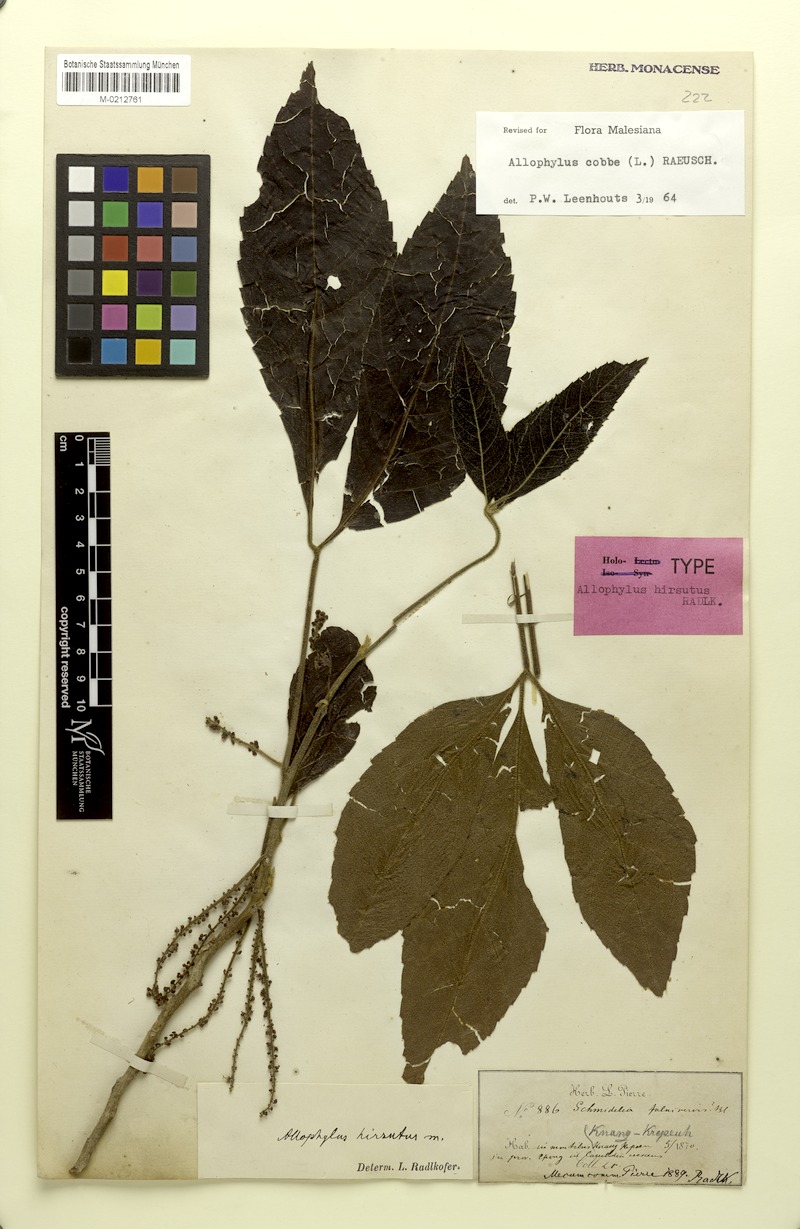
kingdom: Plantae
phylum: Tracheophyta
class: Magnoliopsida
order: Sapindales
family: Sapindaceae
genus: Allophylus
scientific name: Allophylus hirsutus
